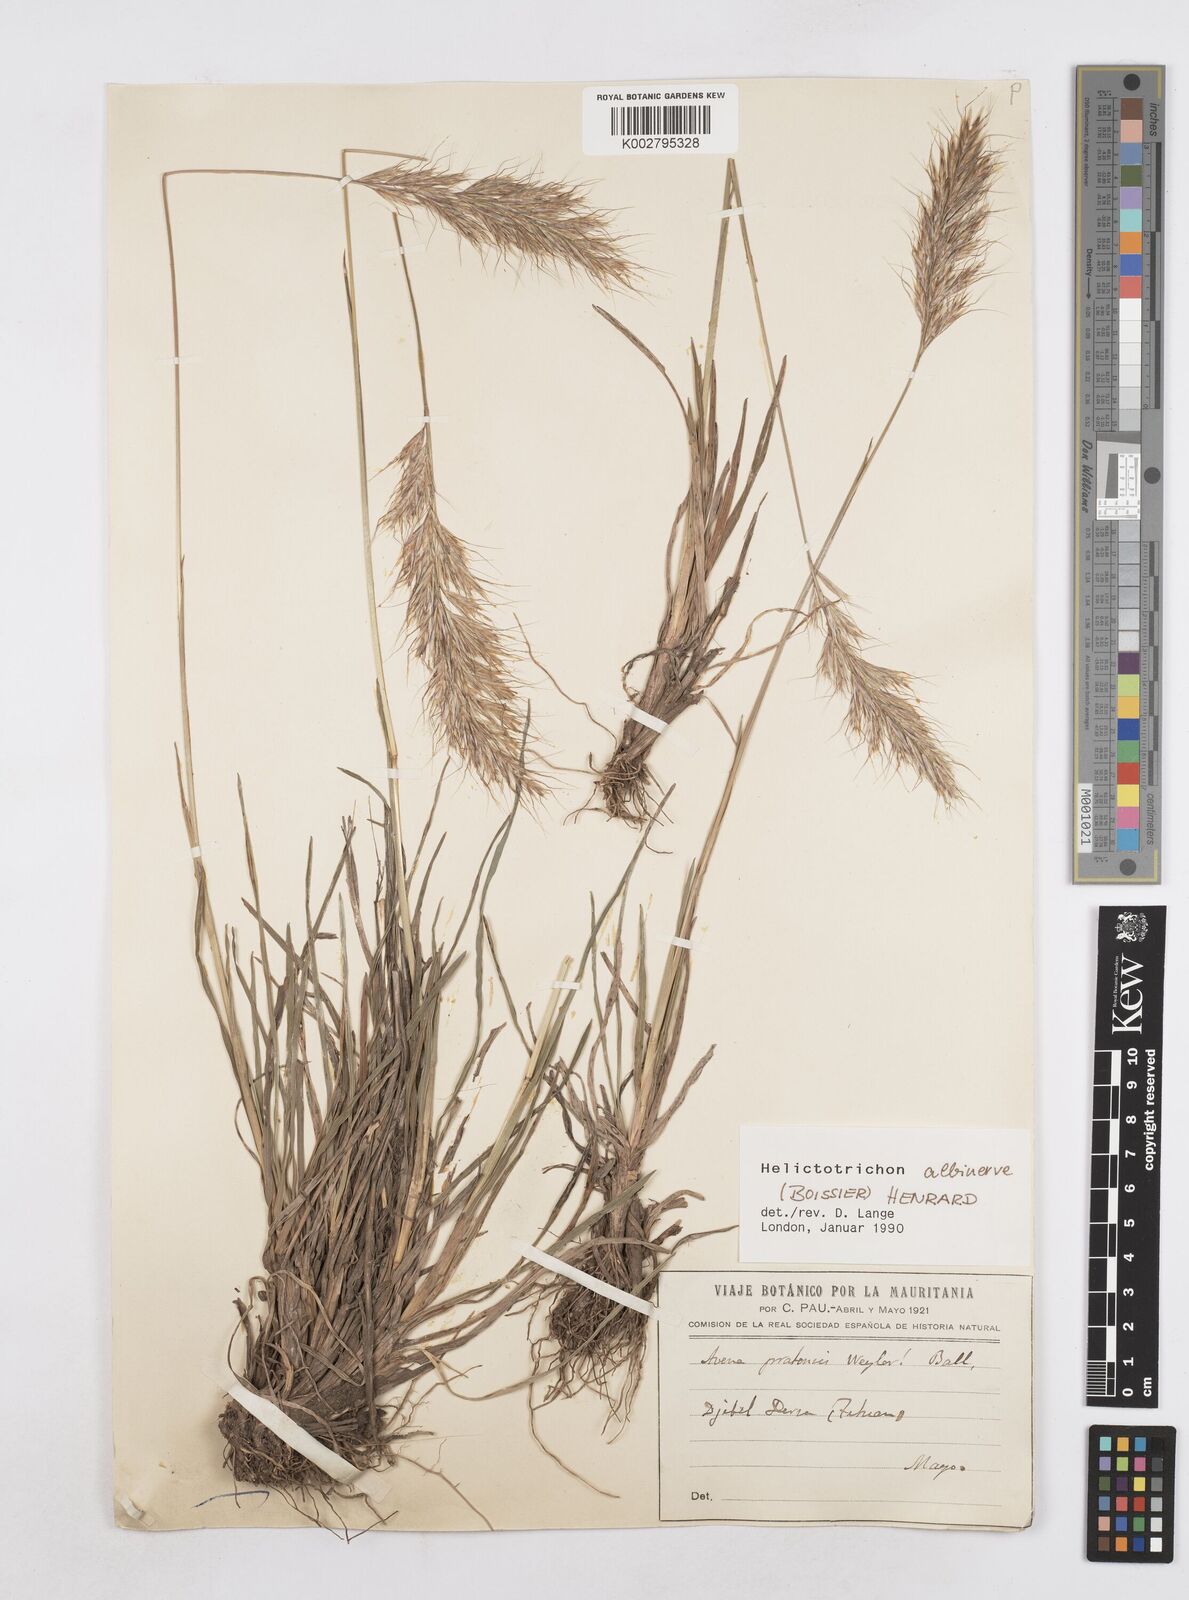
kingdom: Plantae
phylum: Tracheophyta
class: Liliopsida
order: Poales
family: Poaceae
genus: Helictochloa
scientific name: Helictochloa albinervis
